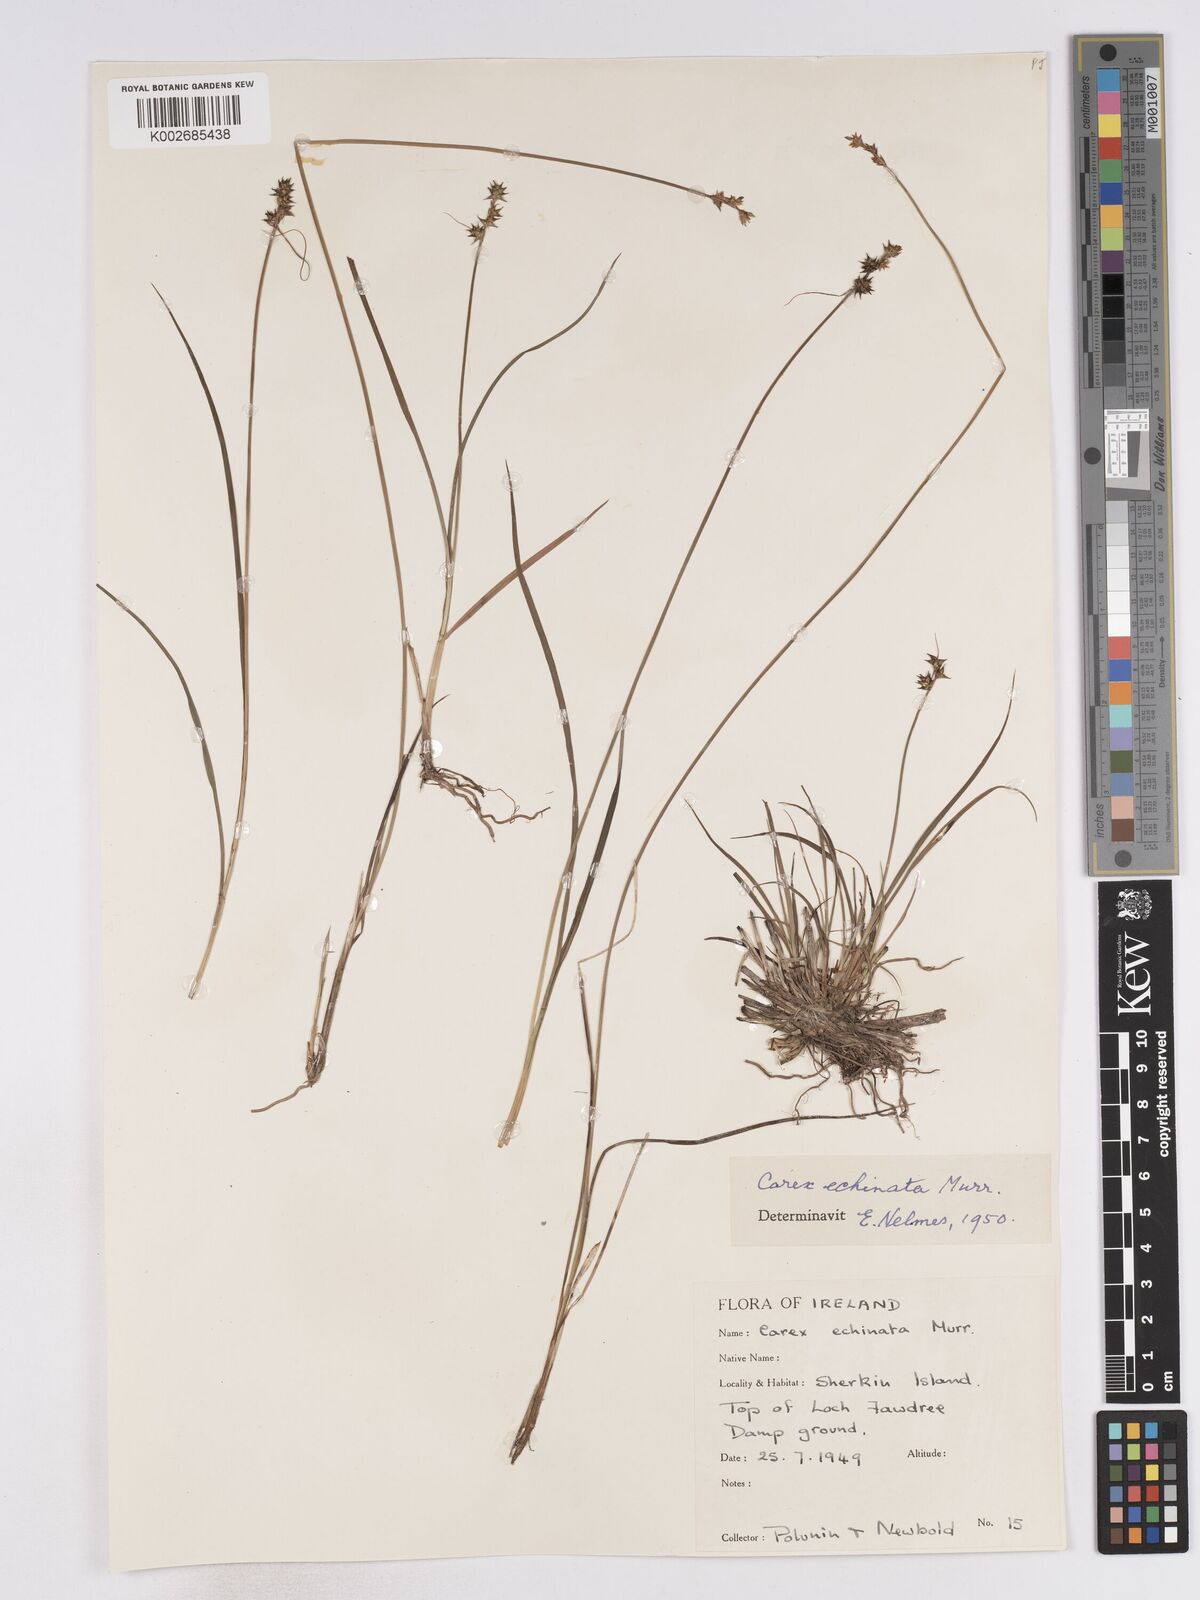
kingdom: Plantae
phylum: Tracheophyta
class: Liliopsida
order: Poales
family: Cyperaceae
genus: Carex
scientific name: Carex echinata
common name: Star sedge
